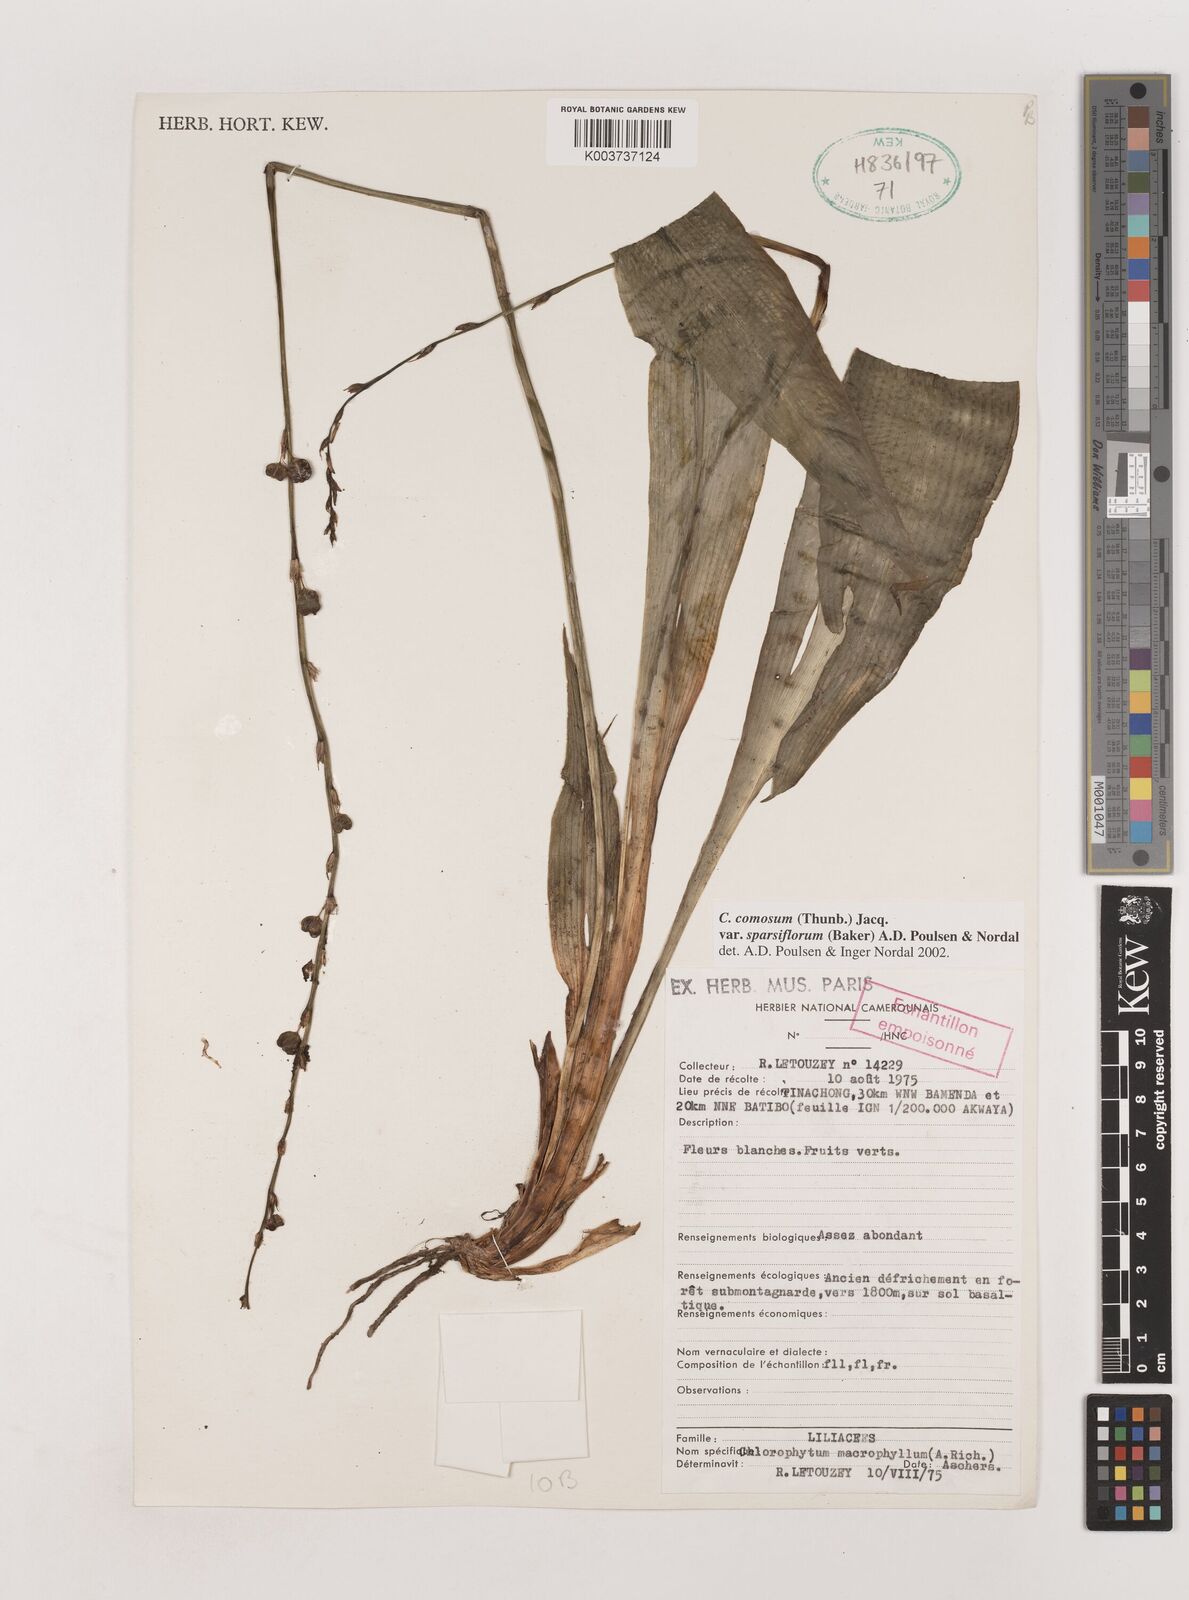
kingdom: Plantae
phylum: Tracheophyta
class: Liliopsida
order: Asparagales
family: Asparagaceae
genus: Chlorophytum
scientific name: Chlorophytum sparsiflorum
